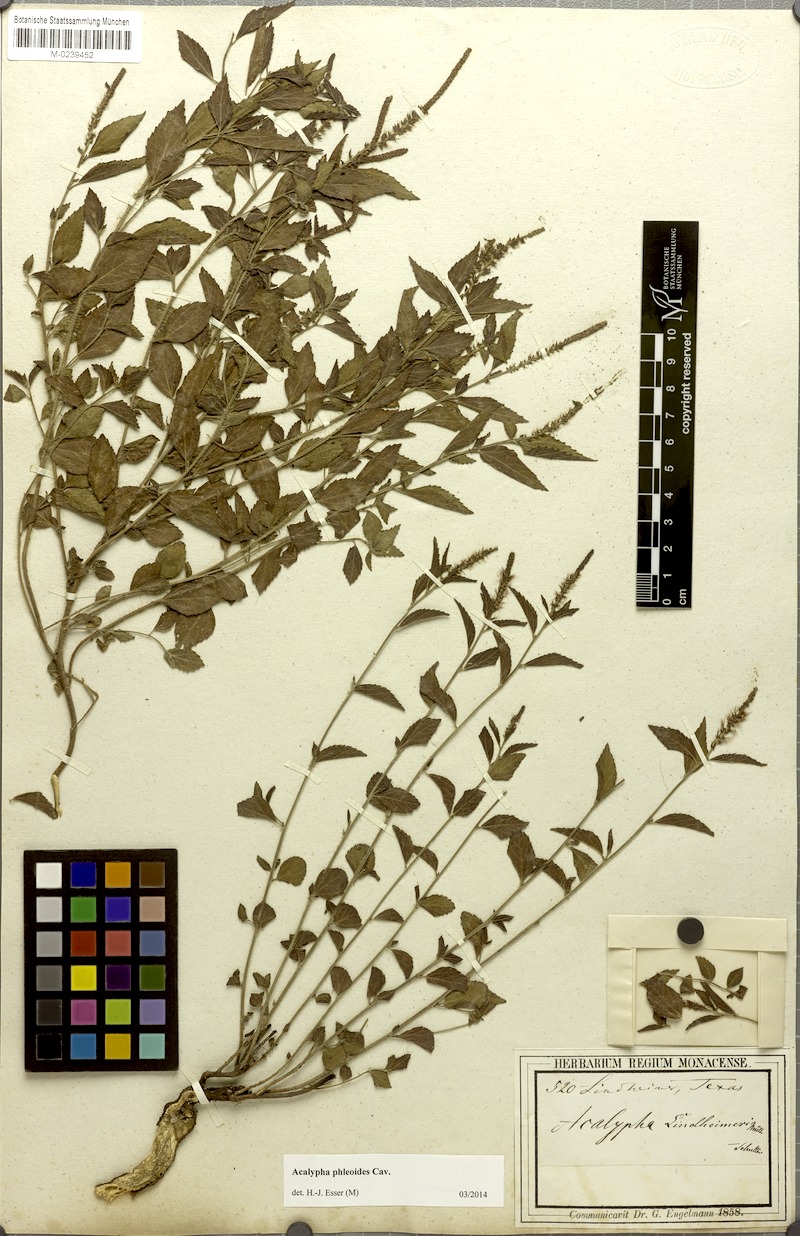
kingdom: Plantae
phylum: Tracheophyta
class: Magnoliopsida
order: Malpighiales
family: Euphorbiaceae
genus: Acalypha
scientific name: Acalypha phleoides
